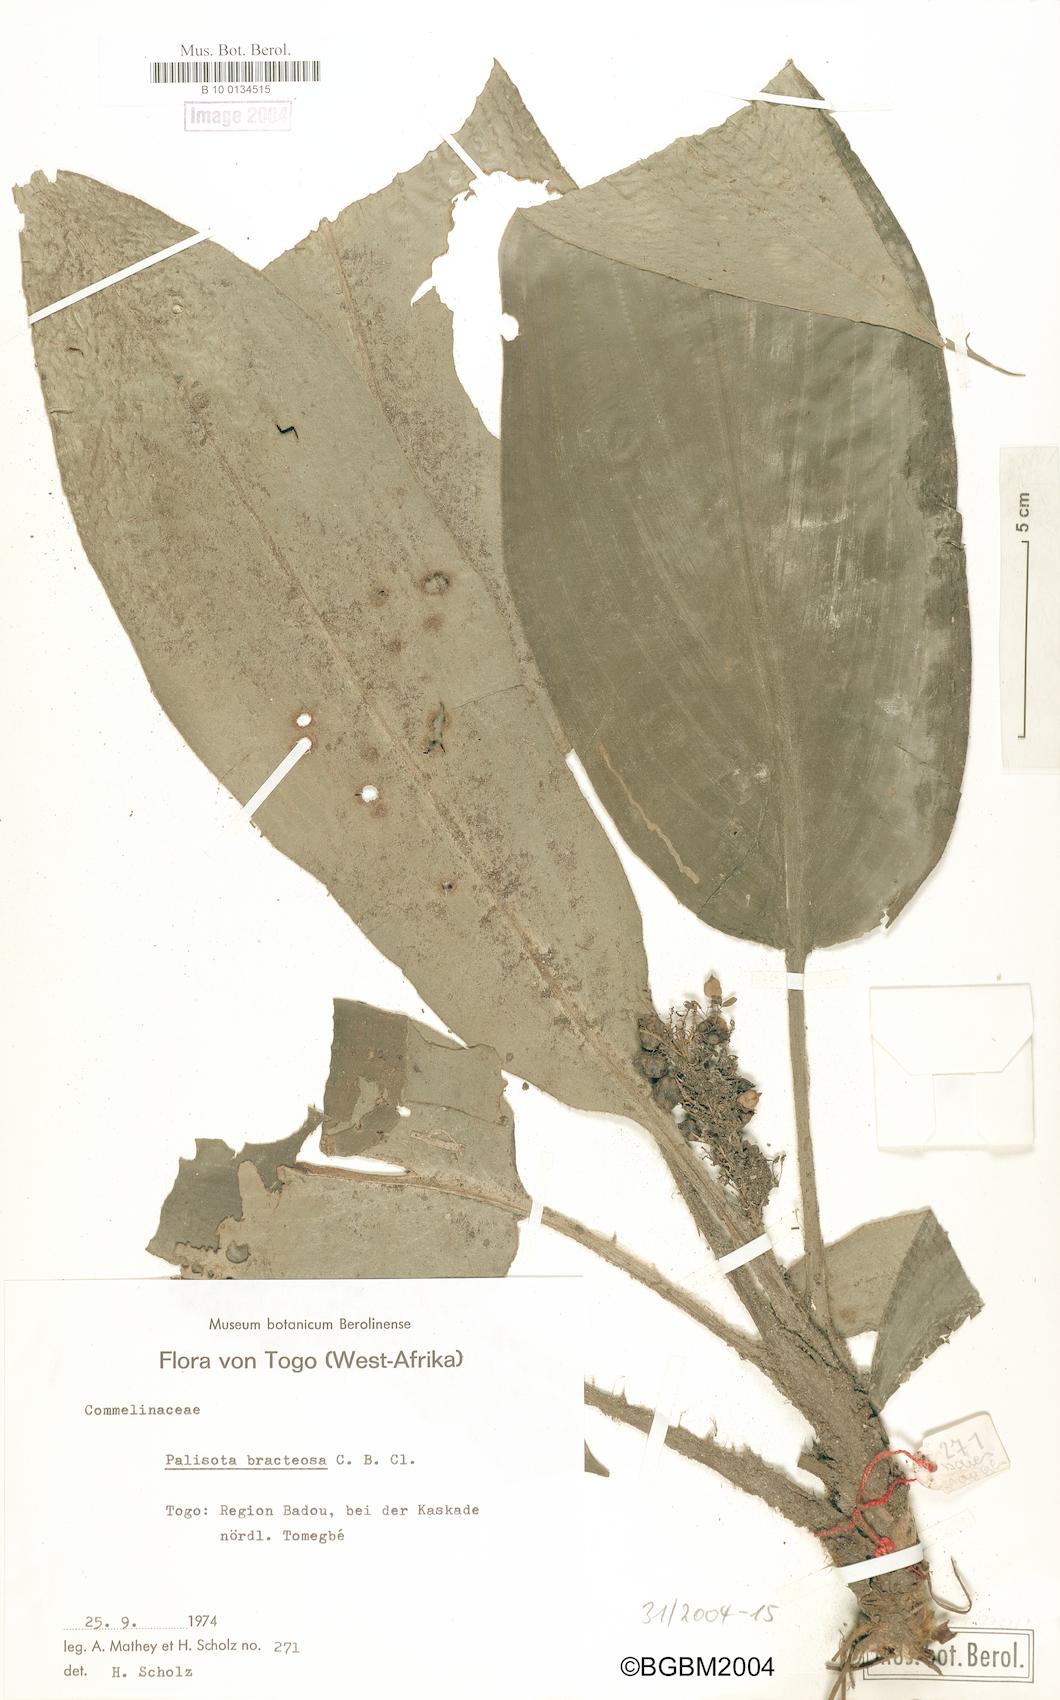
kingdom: Plantae
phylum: Tracheophyta
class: Liliopsida
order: Commelinales
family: Commelinaceae
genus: Palisota
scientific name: Palisota barteri
